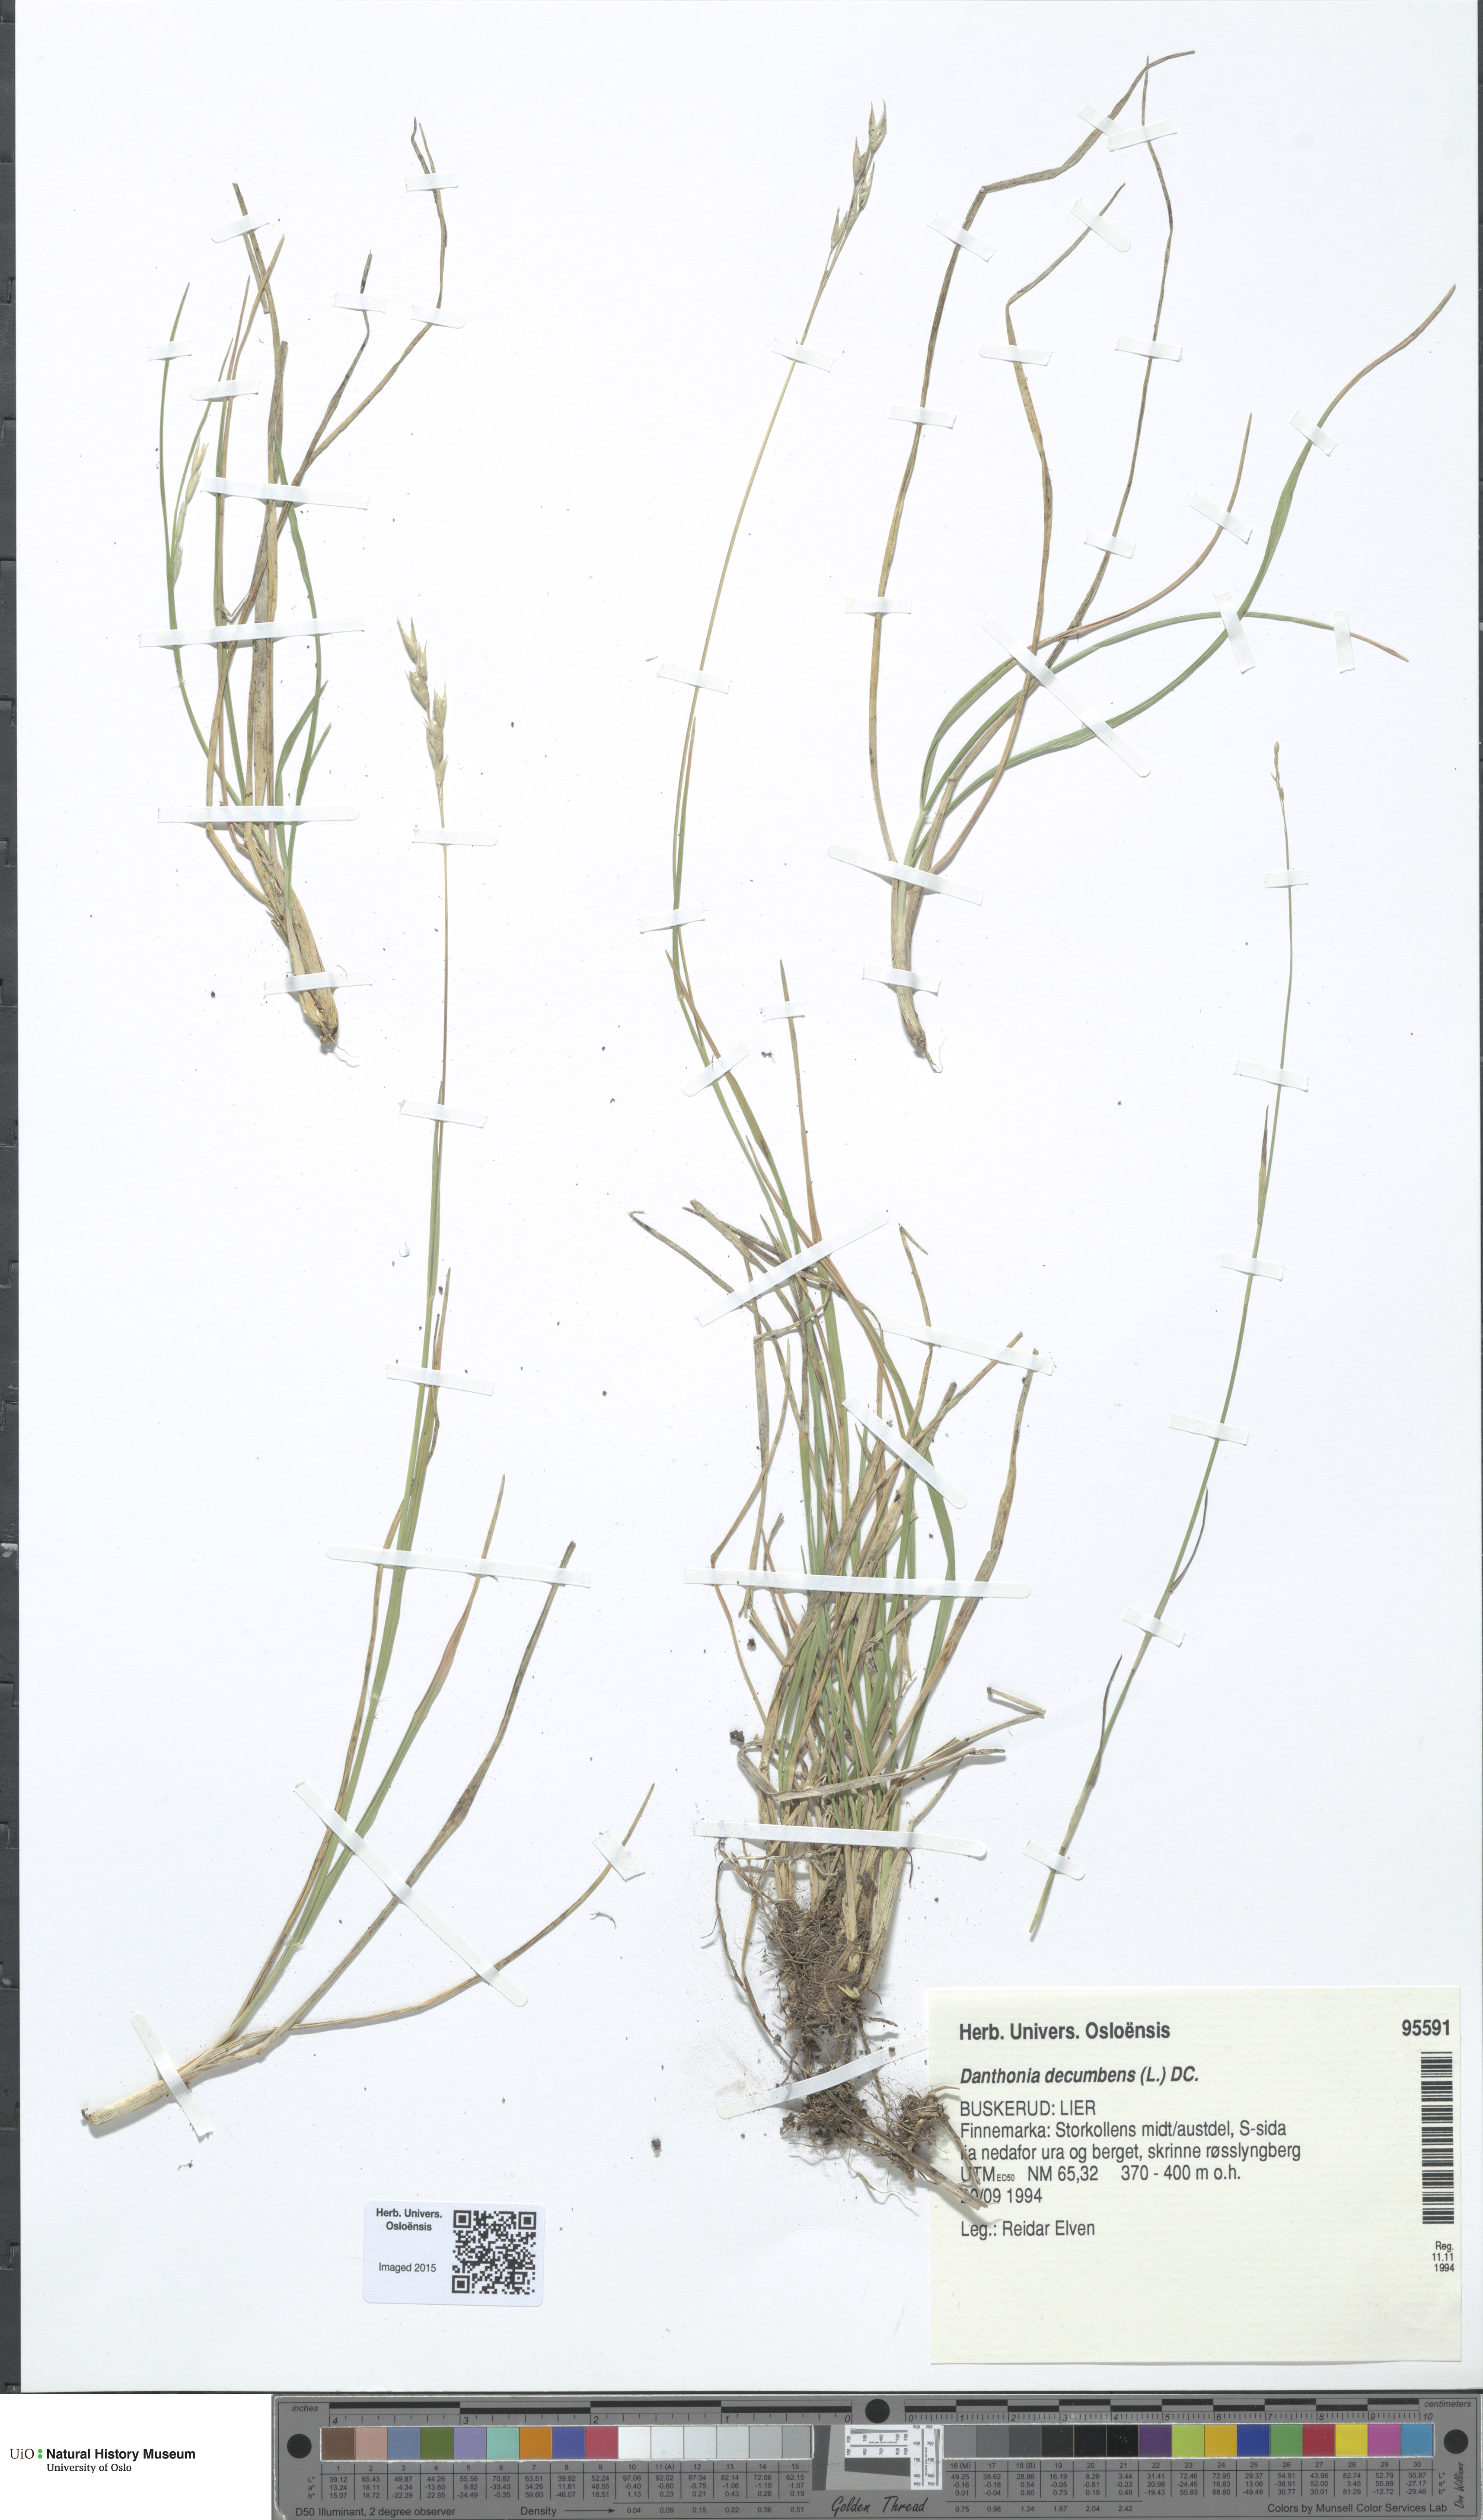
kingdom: Plantae
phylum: Tracheophyta
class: Liliopsida
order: Poales
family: Poaceae
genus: Danthonia
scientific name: Danthonia decumbens
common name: Common heathgrass
